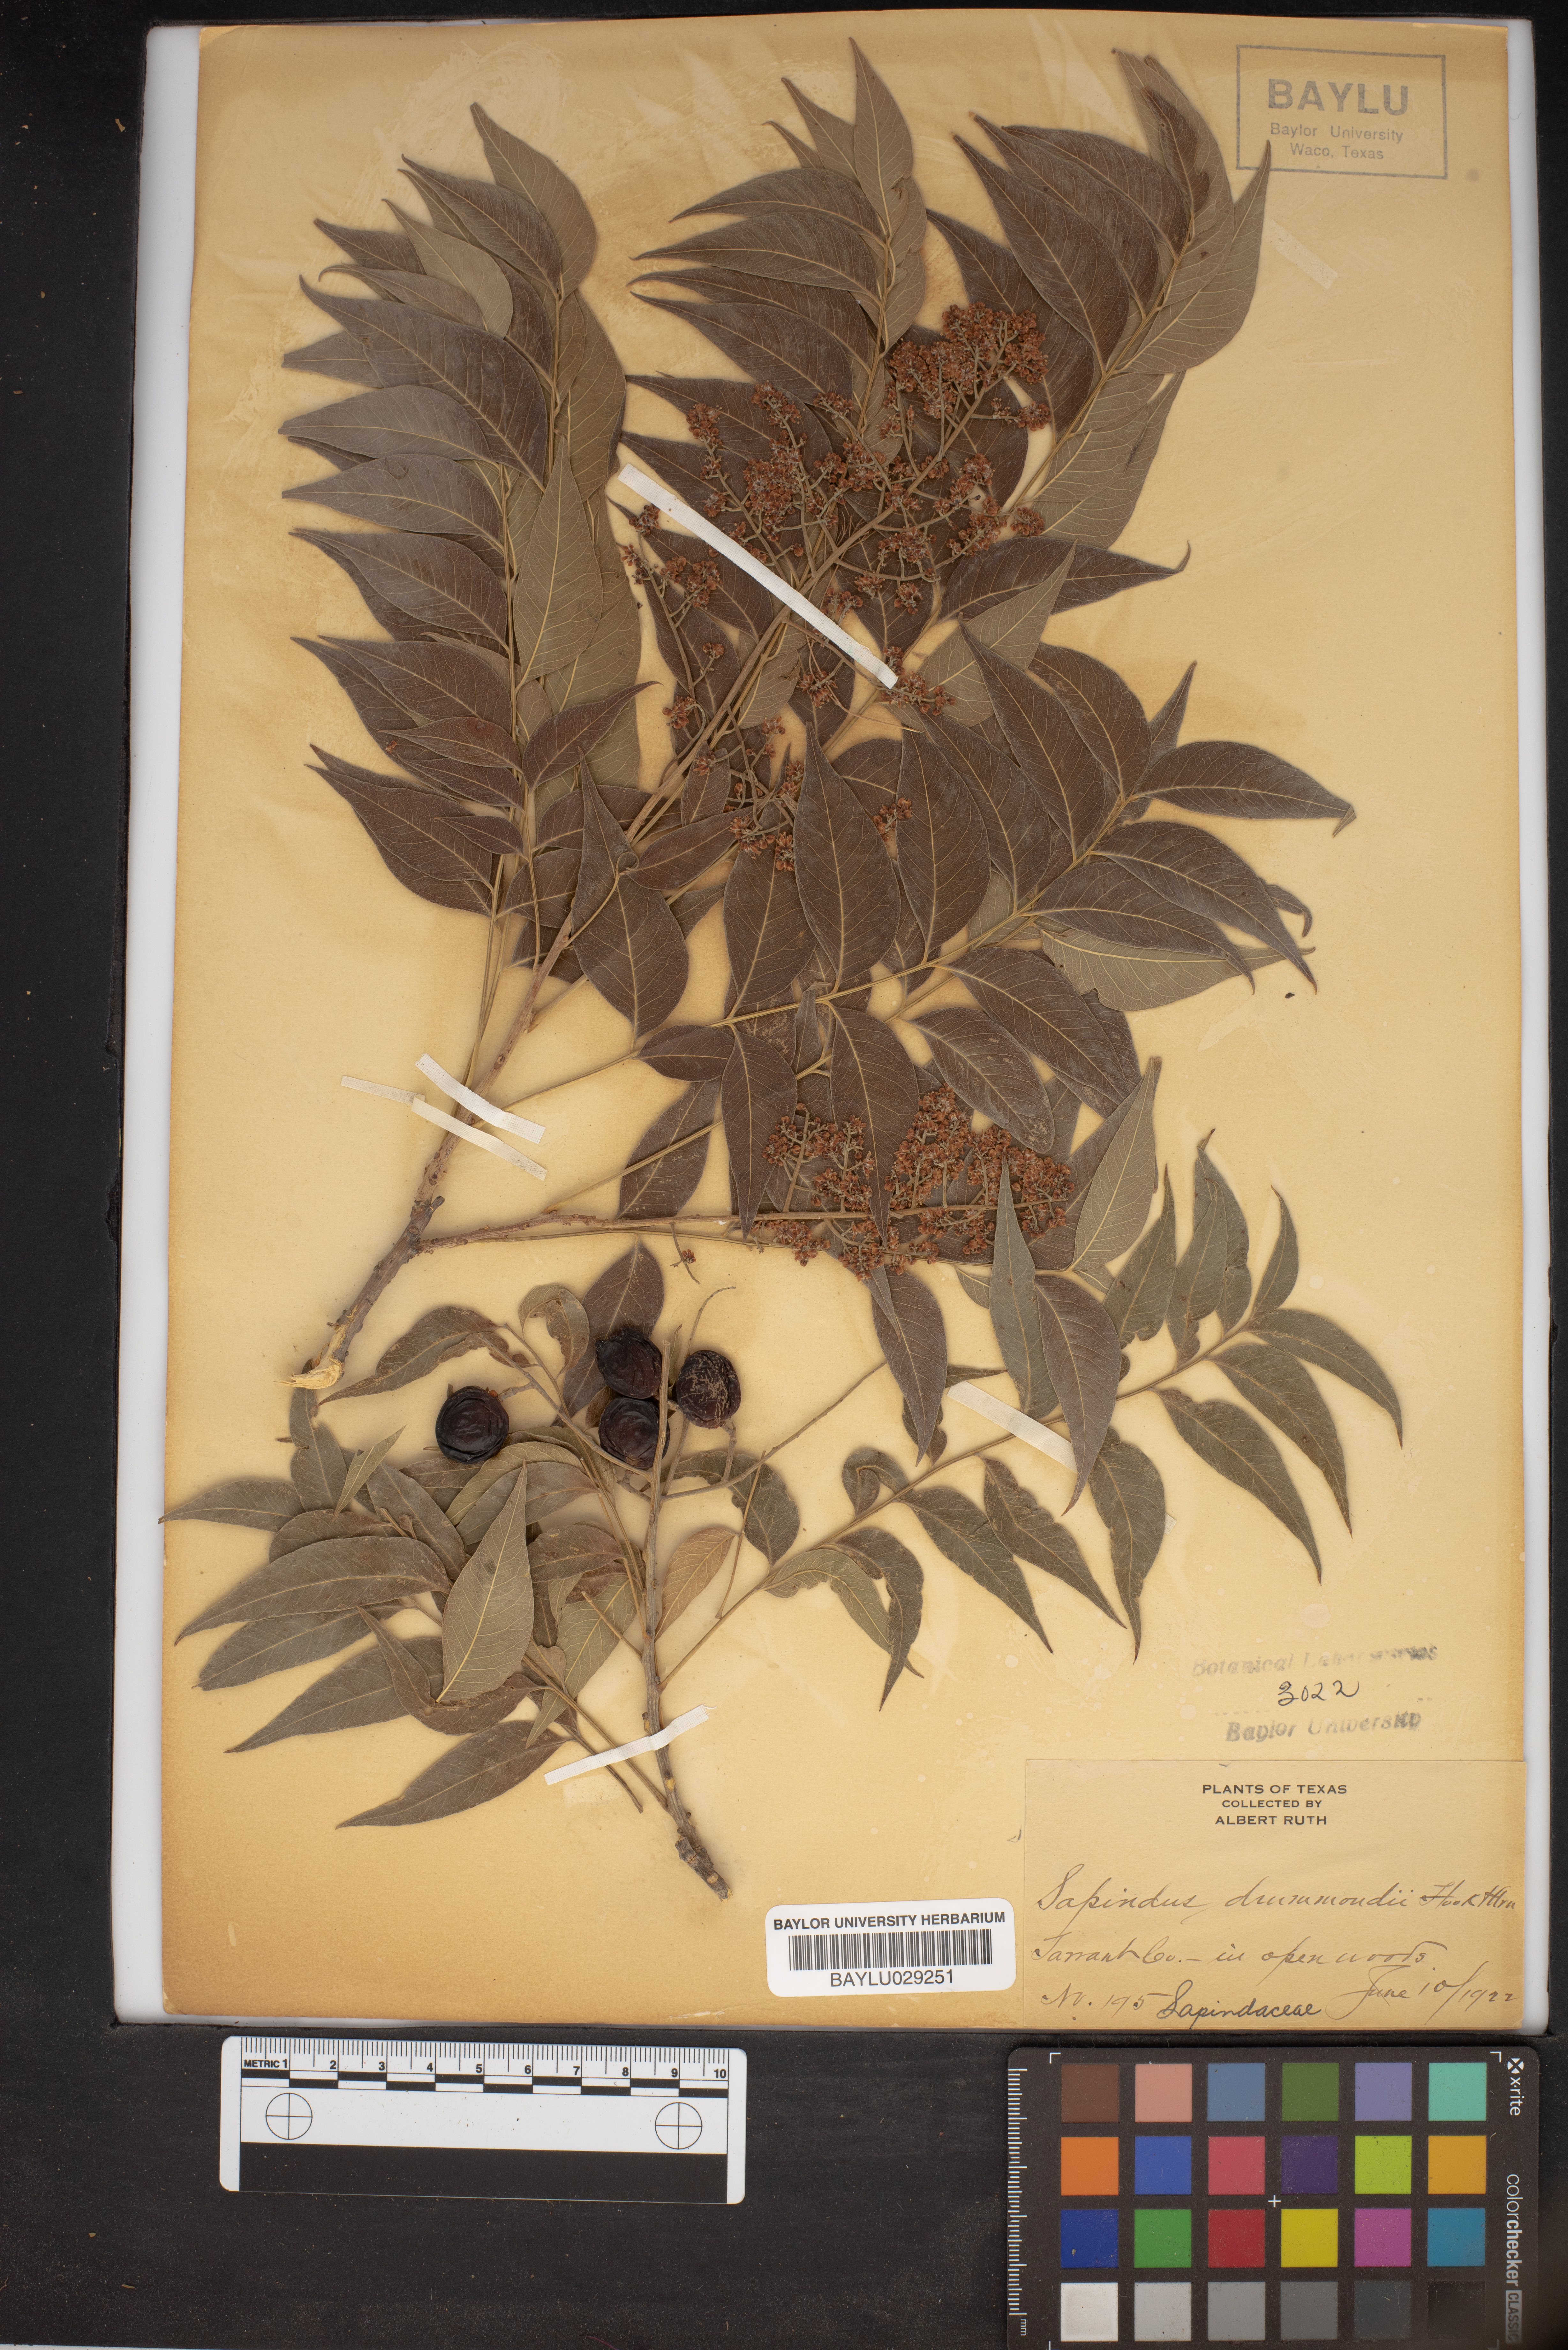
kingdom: Plantae
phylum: Tracheophyta
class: Magnoliopsida
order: Sapindales
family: Sapindaceae
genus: Sapindus
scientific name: Sapindus drummondii
